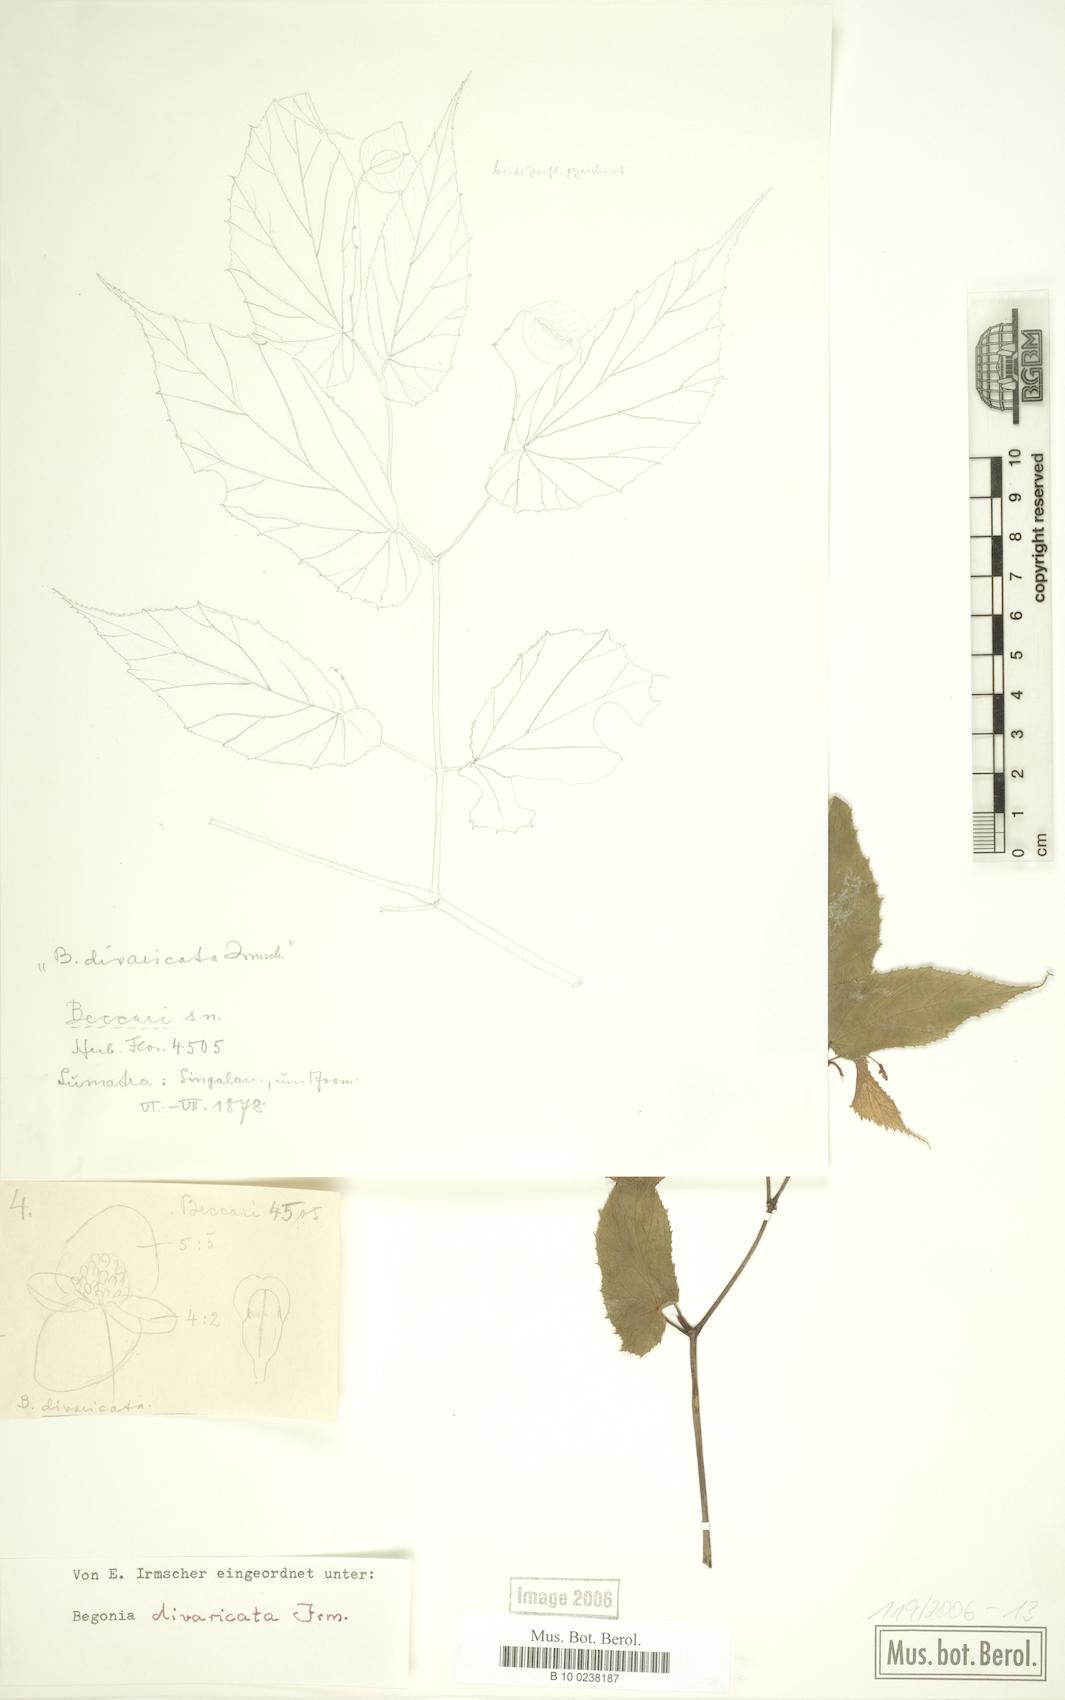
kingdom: Plantae
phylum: Tracheophyta
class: Magnoliopsida
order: Cucurbitales
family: Begoniaceae
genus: Begonia
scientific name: Begonia divaricata
